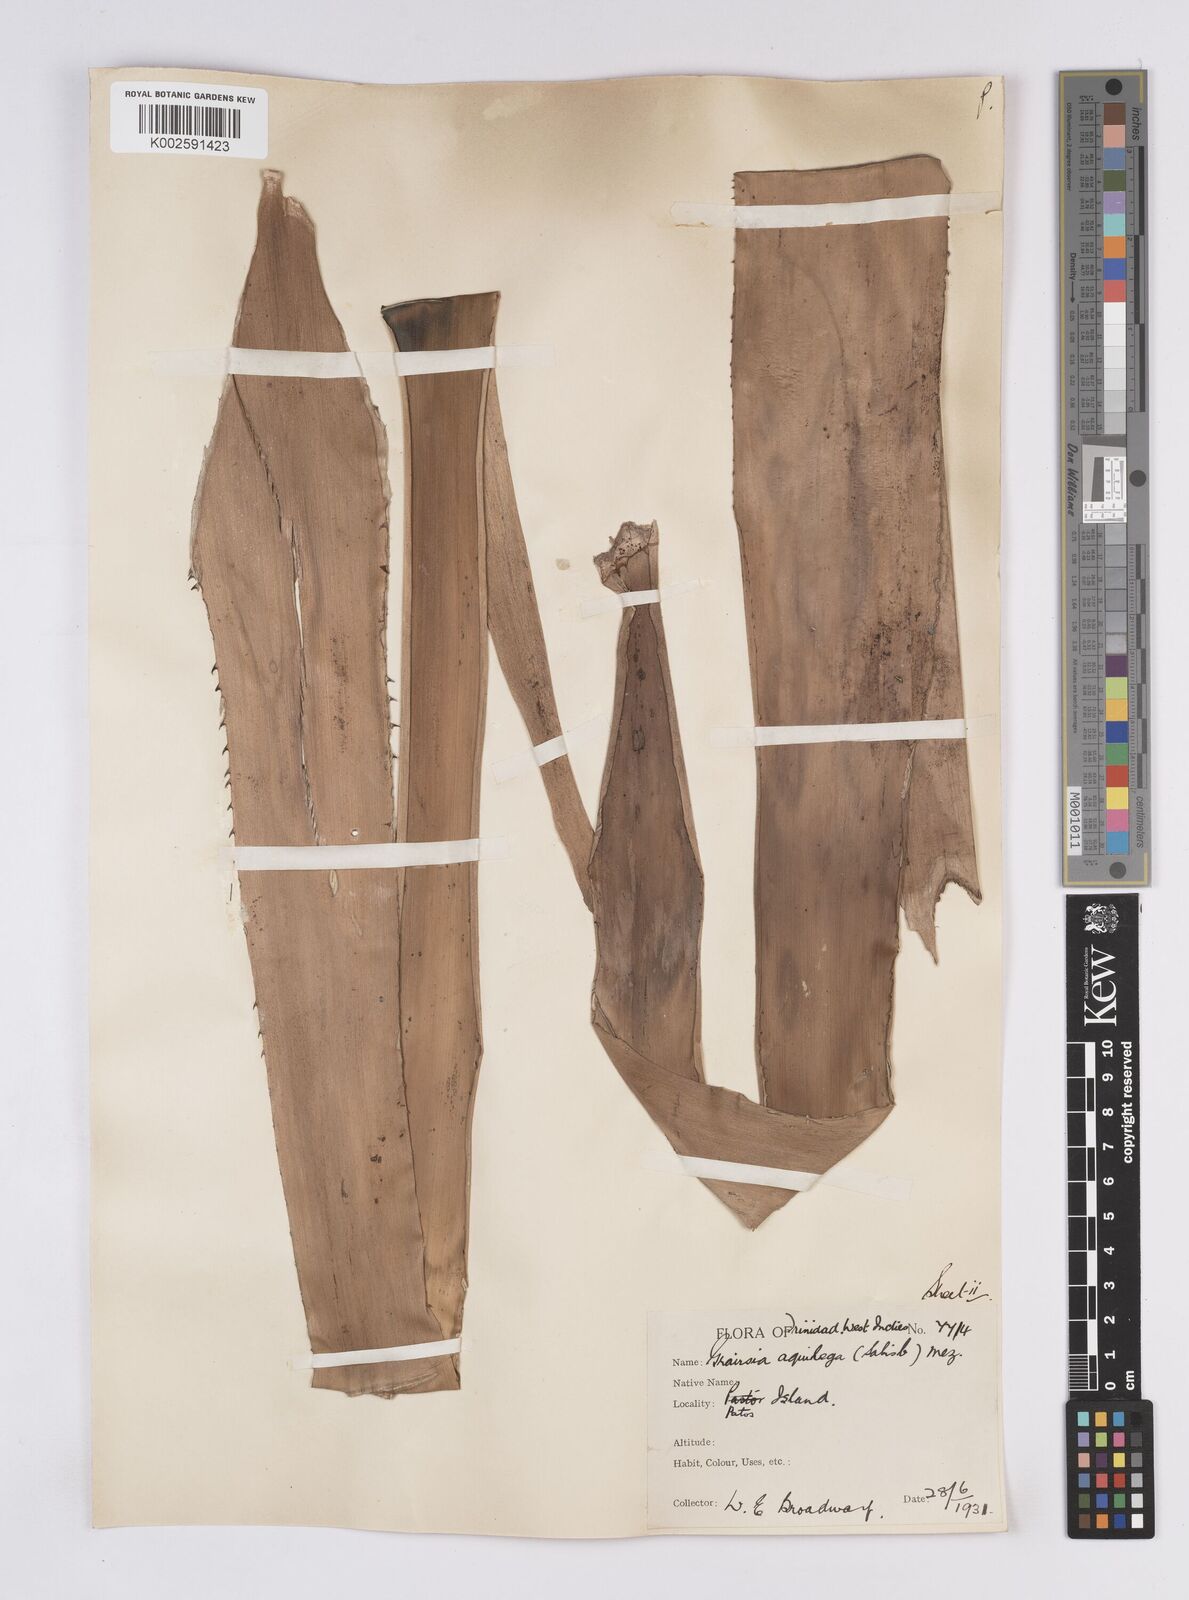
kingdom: Plantae
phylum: Tracheophyta
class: Liliopsida
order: Poales
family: Bromeliaceae
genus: Aechmea
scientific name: Aechmea aquilega
